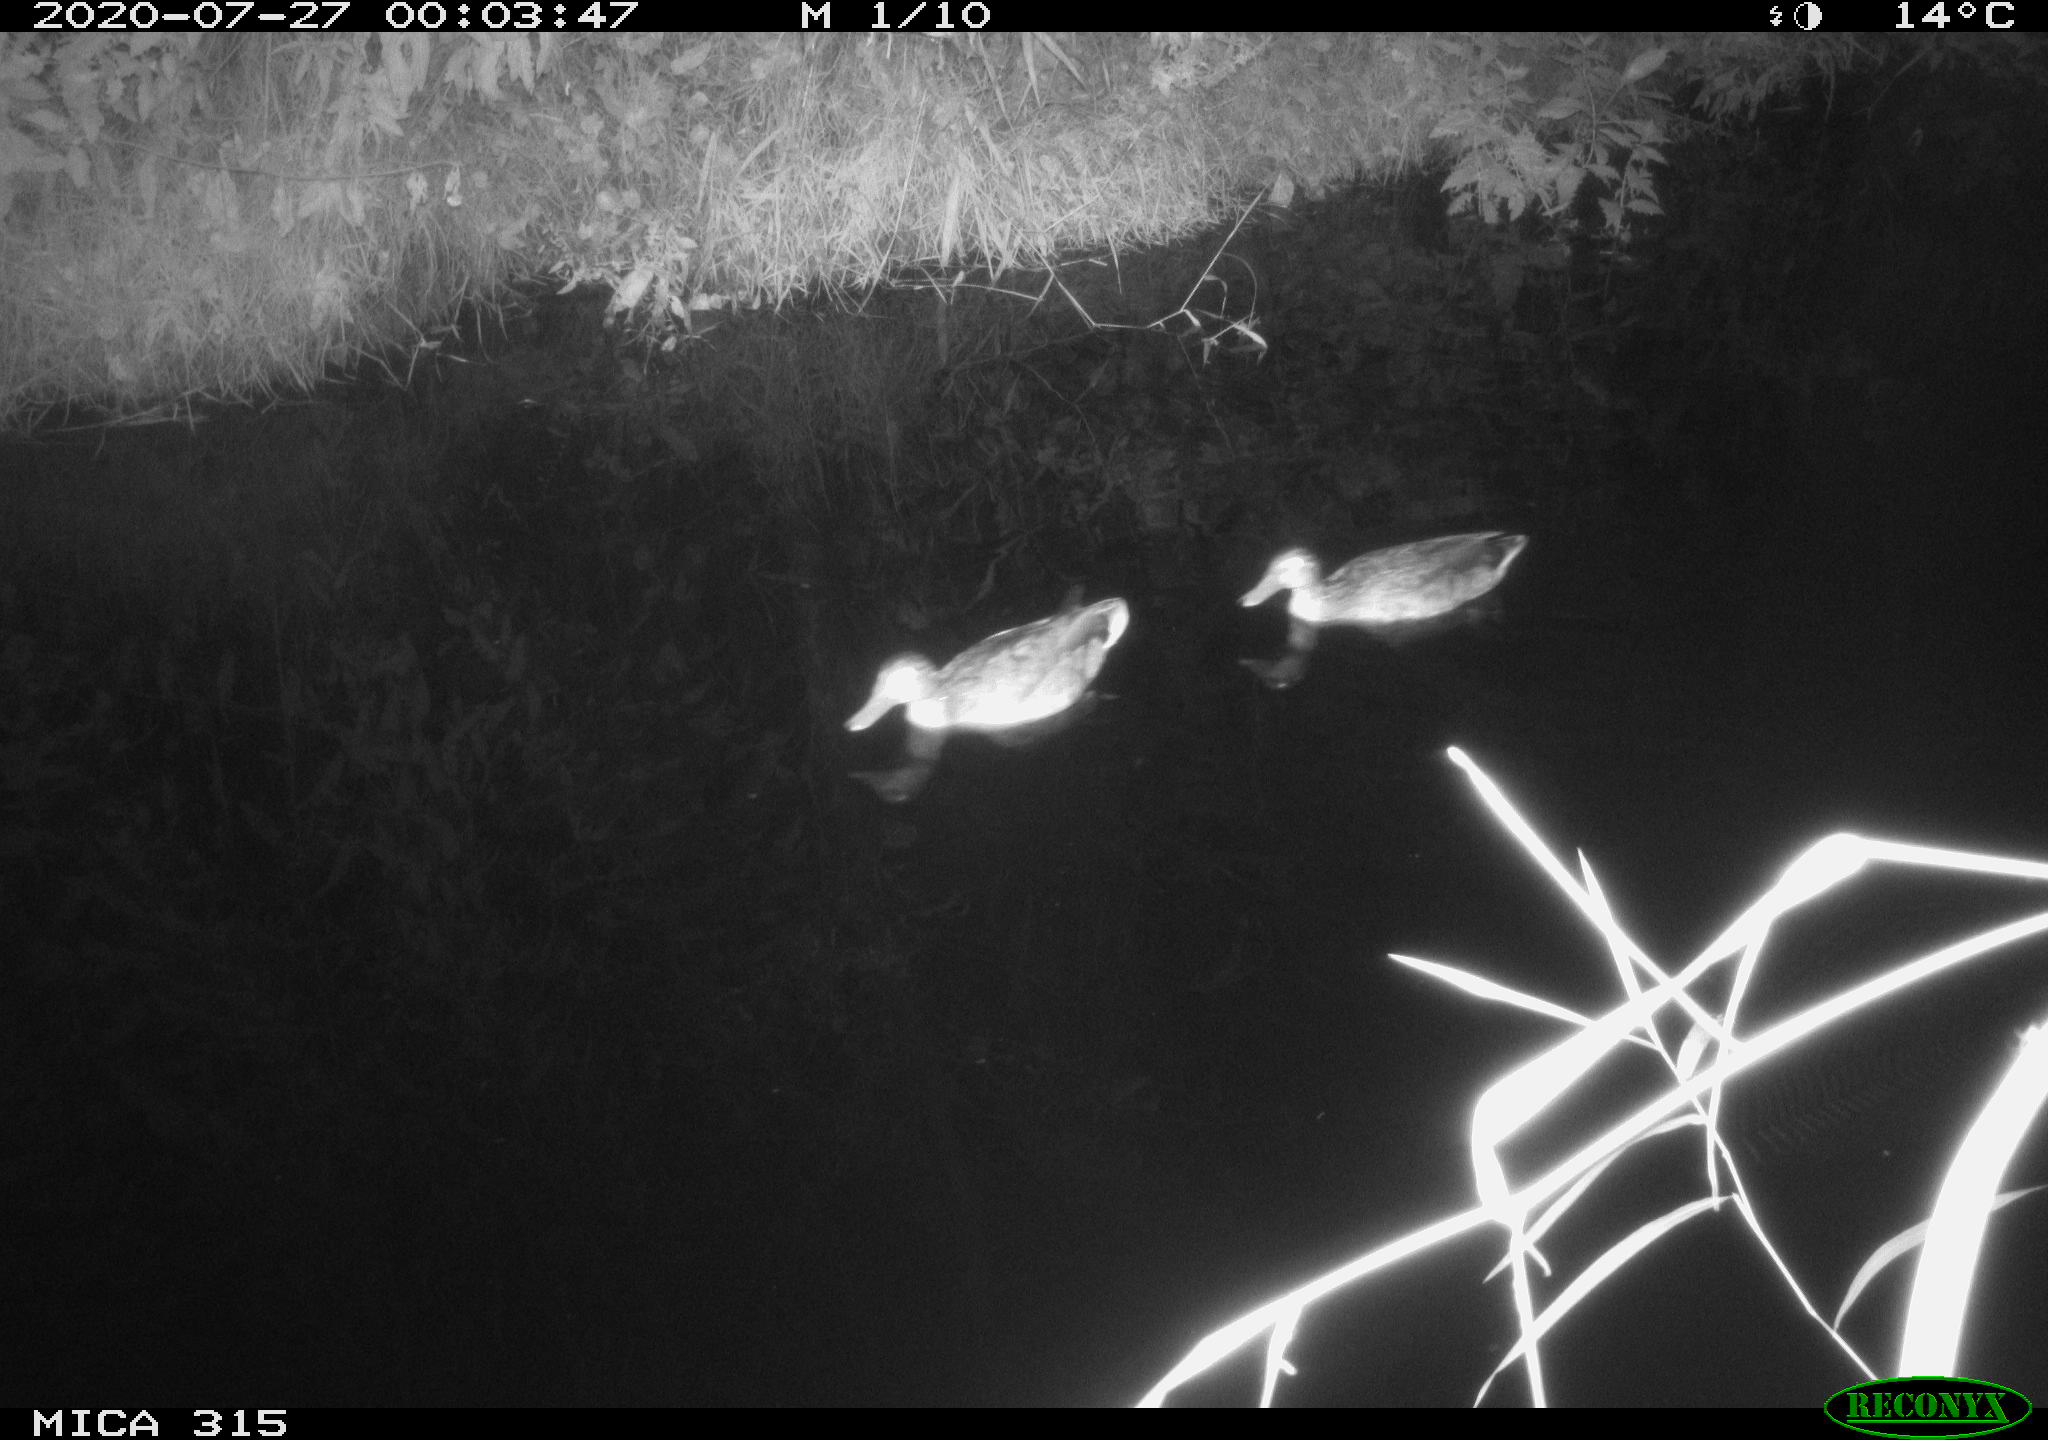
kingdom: Animalia
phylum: Chordata
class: Aves
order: Anseriformes
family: Anatidae
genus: Anas
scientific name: Anas platyrhynchos
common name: Mallard
